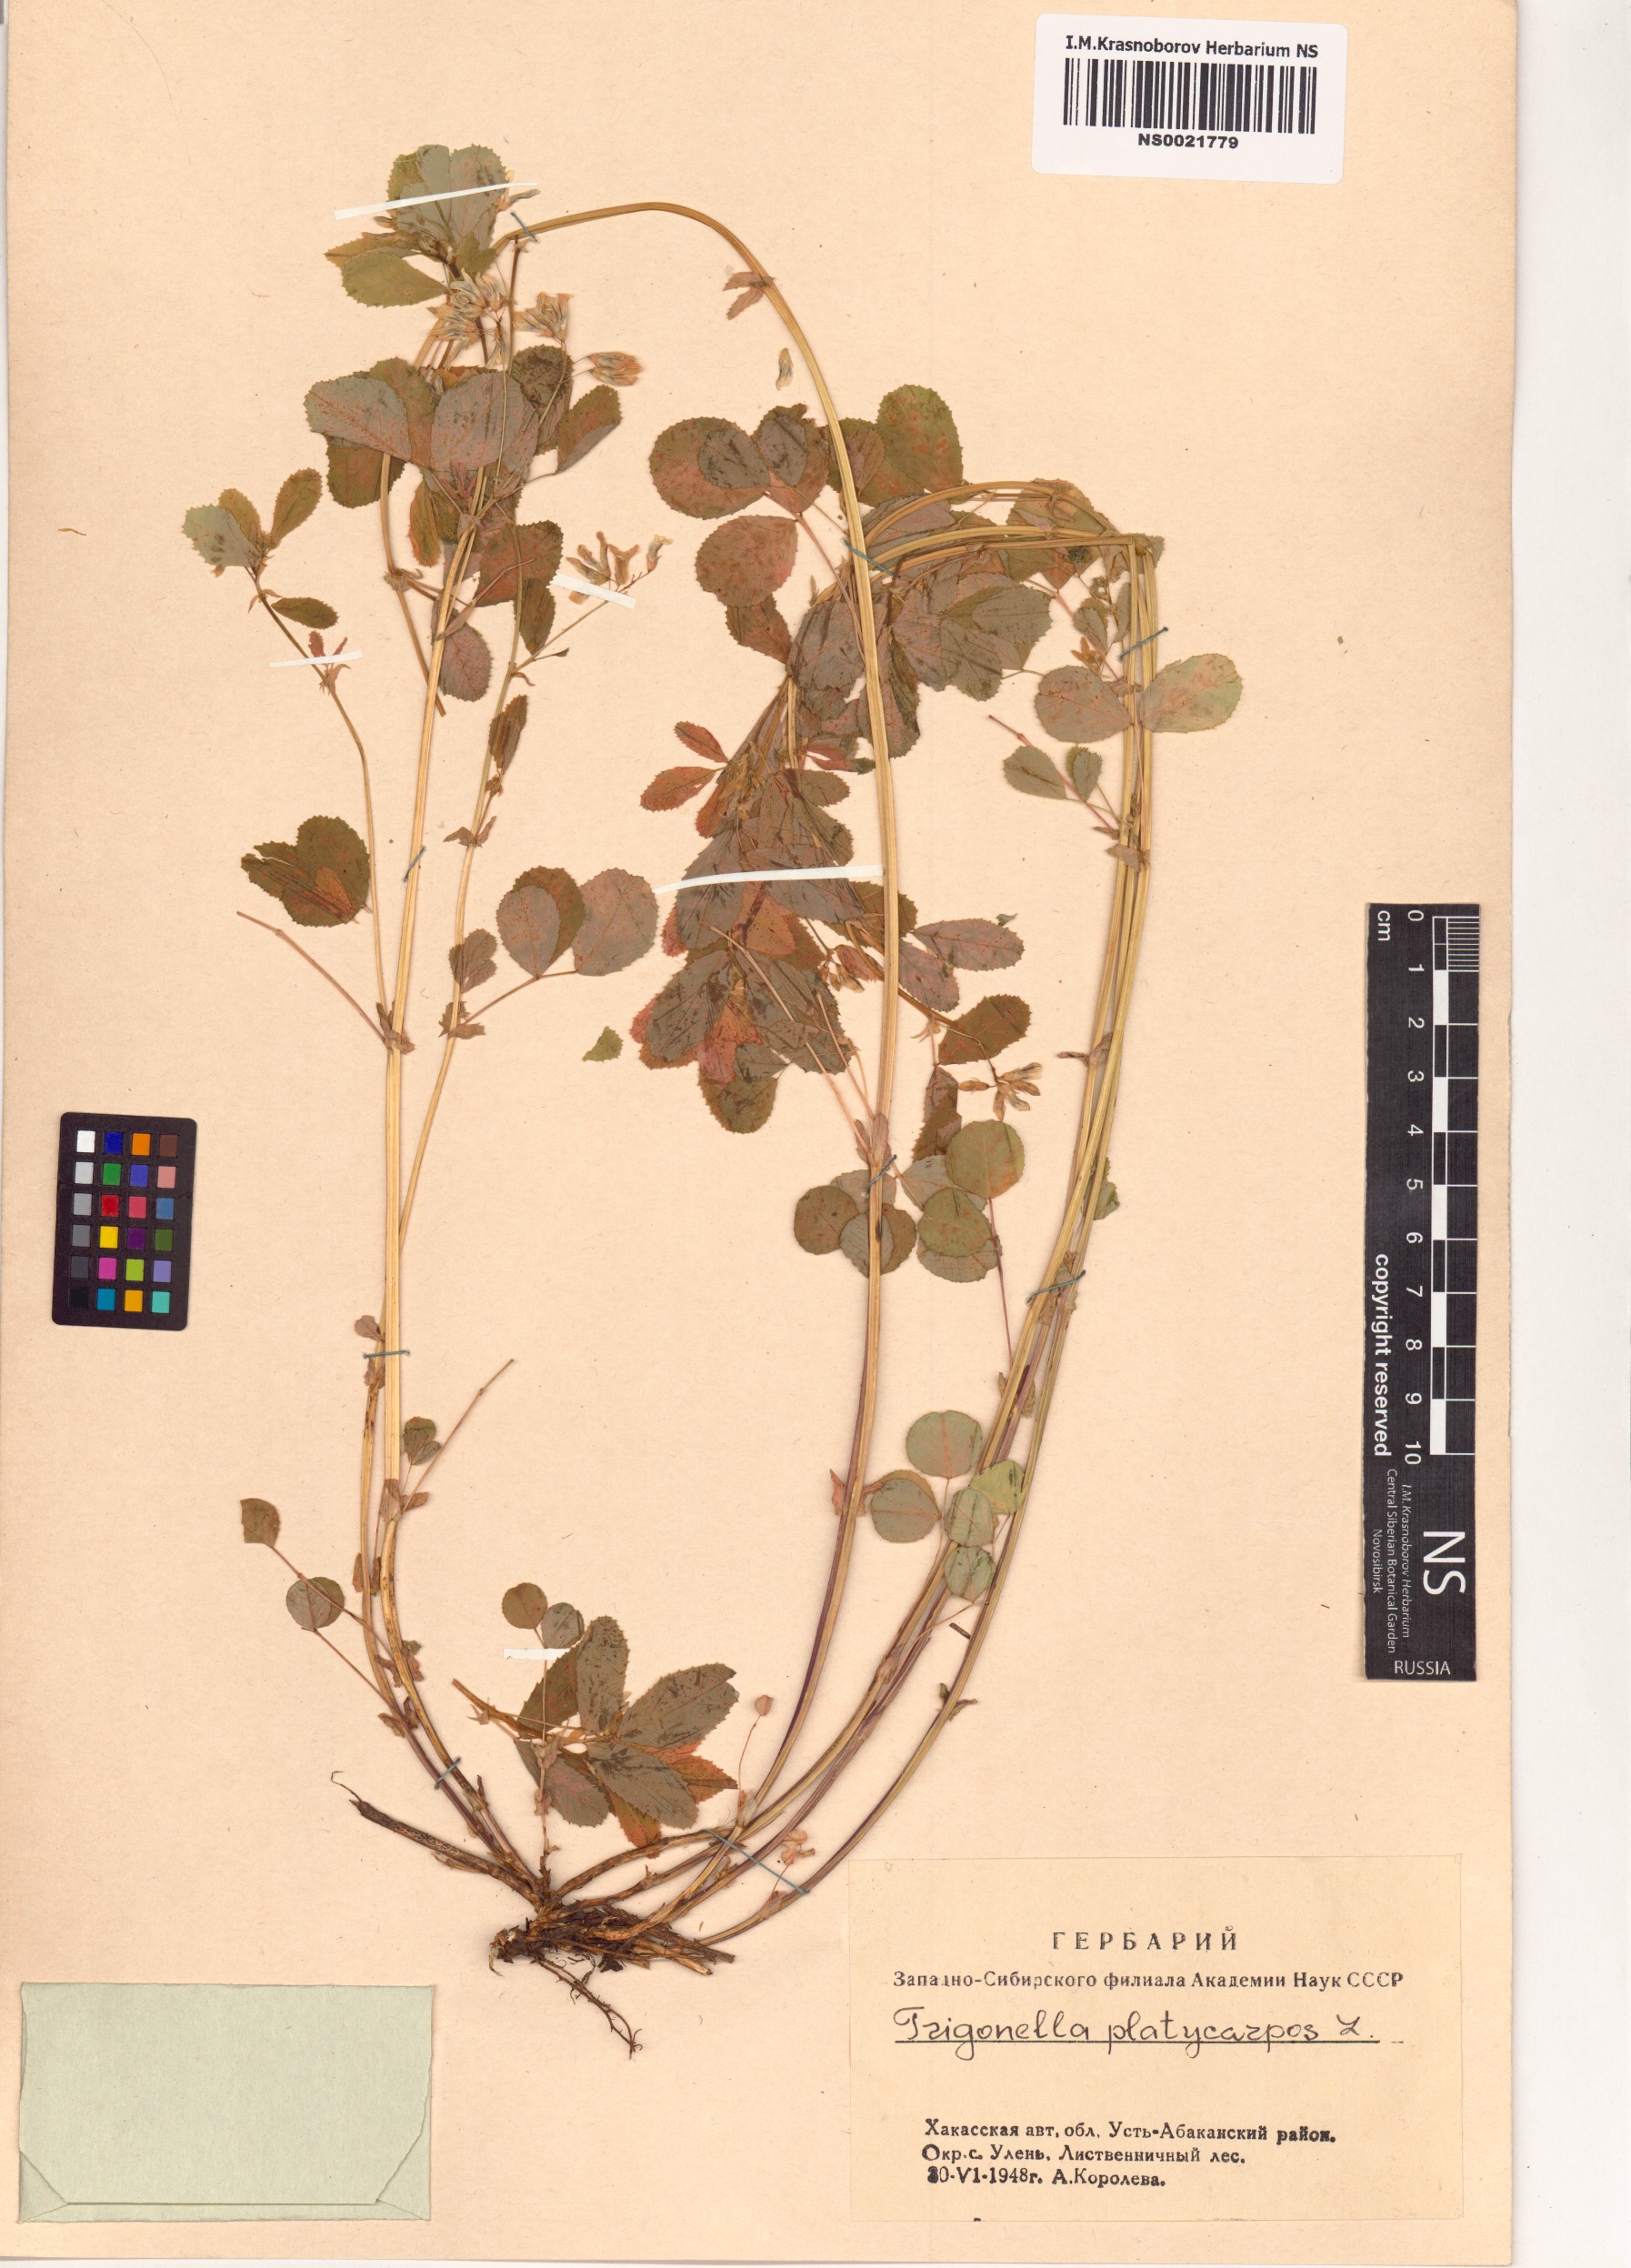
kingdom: Plantae
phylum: Tracheophyta
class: Magnoliopsida
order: Fabales
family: Fabaceae
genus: Medicago
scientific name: Medicago platycarpos
